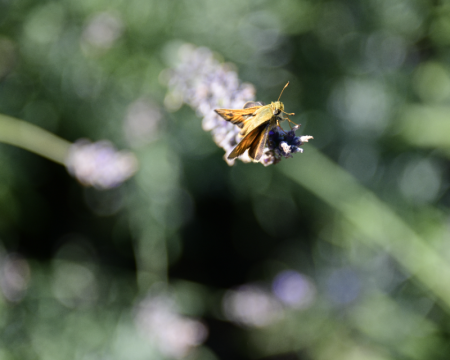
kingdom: Animalia
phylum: Arthropoda
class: Insecta
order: Lepidoptera
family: Hesperiidae
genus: Hylephila
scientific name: Hylephila phyleus
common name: Fiery Skipper
